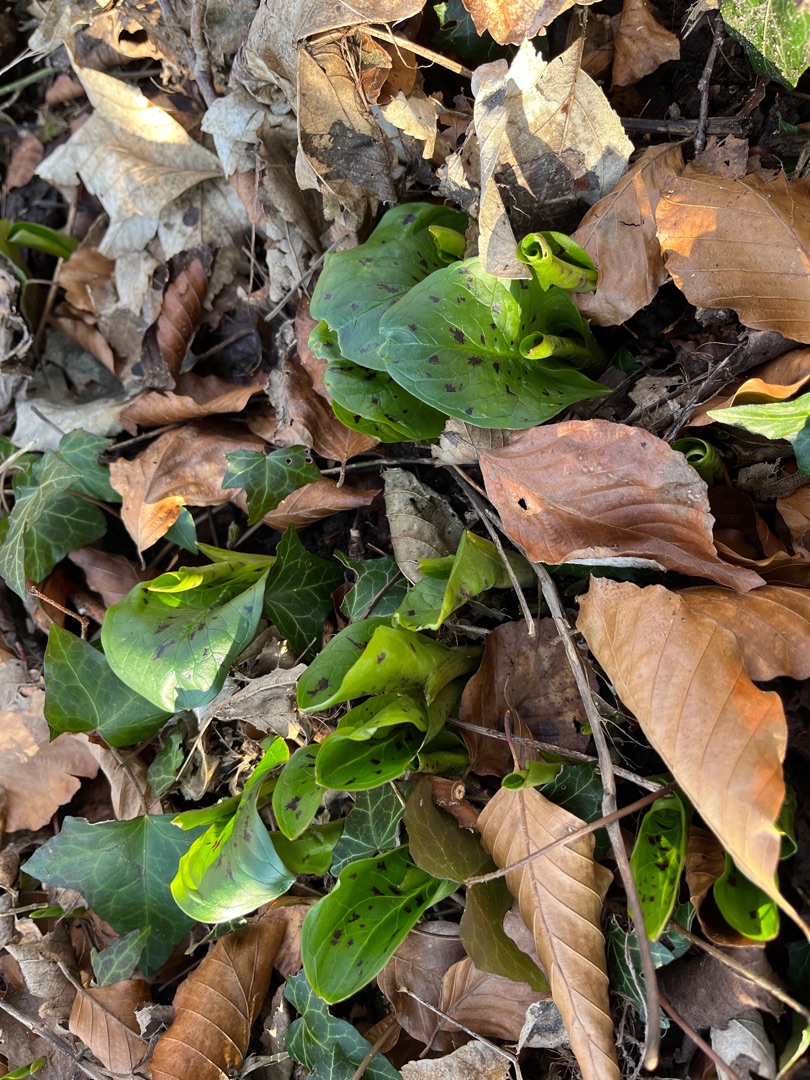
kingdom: Plantae
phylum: Tracheophyta
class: Liliopsida
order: Alismatales
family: Araceae
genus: Arum
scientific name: Arum maculatum
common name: Plettet arum
